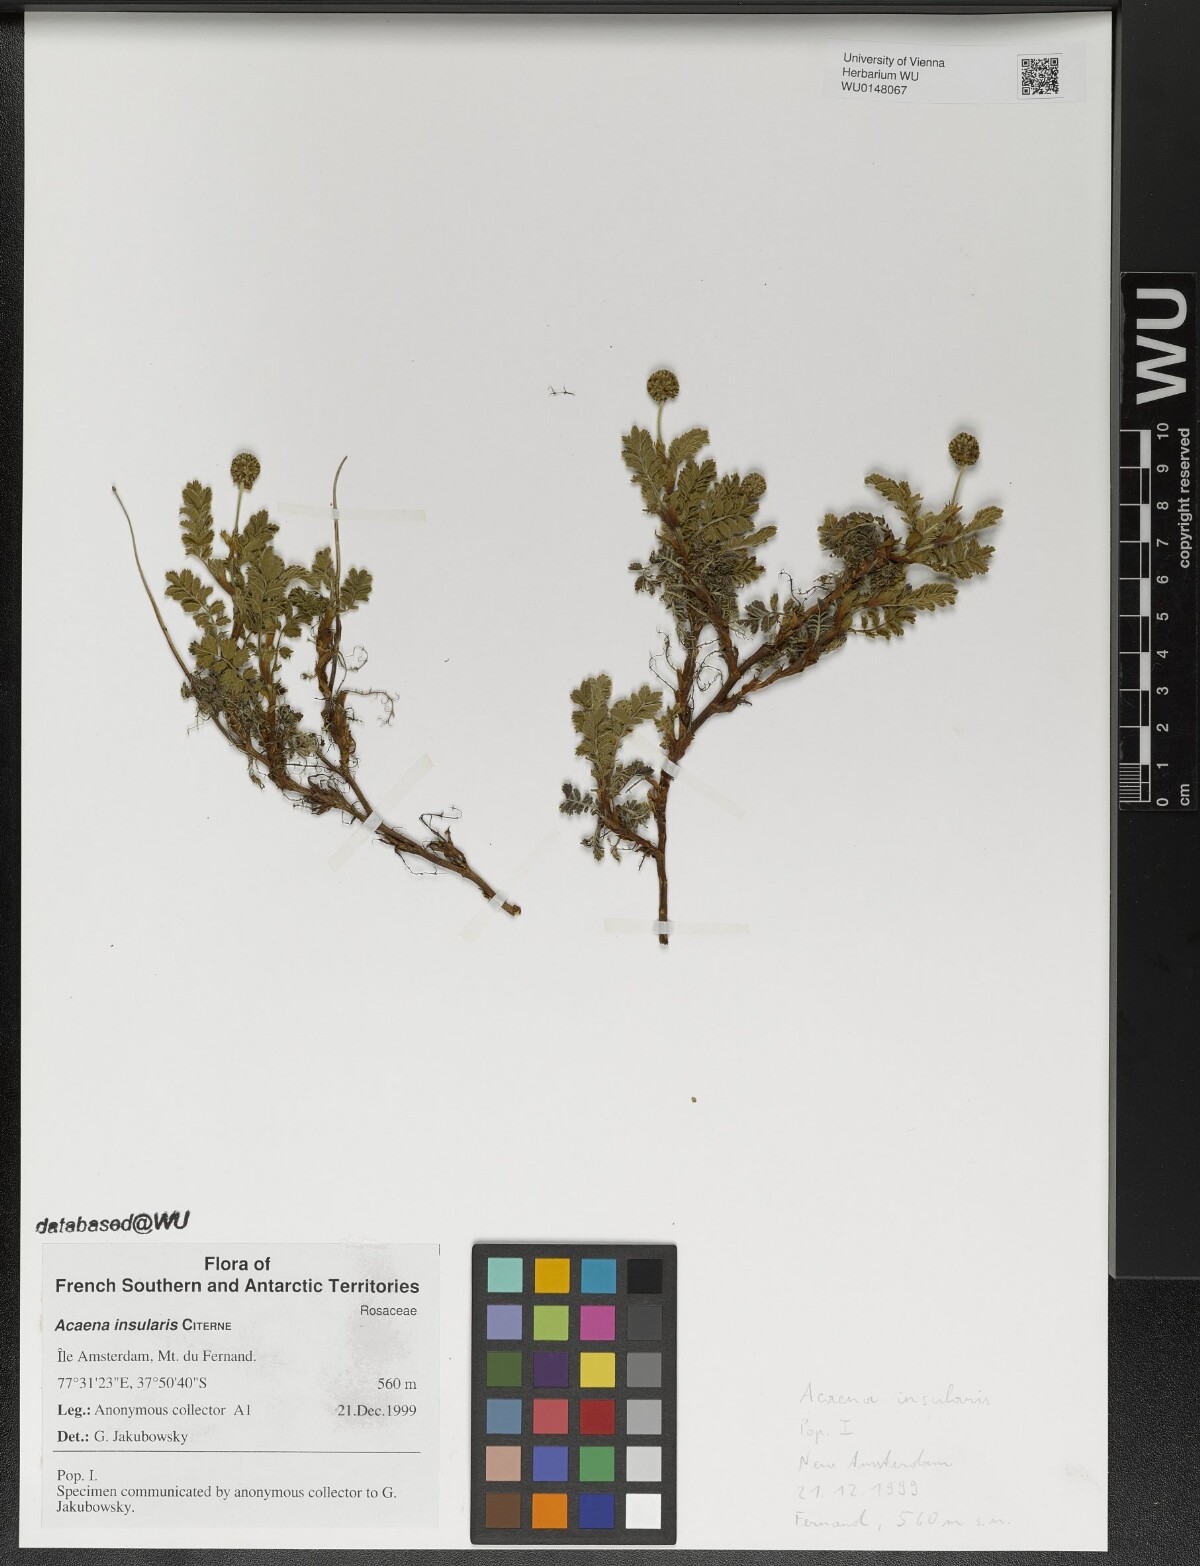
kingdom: Plantae
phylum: Tracheophyta
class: Magnoliopsida
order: Rosales
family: Rosaceae
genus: Acaena
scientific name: Acaena insularis
